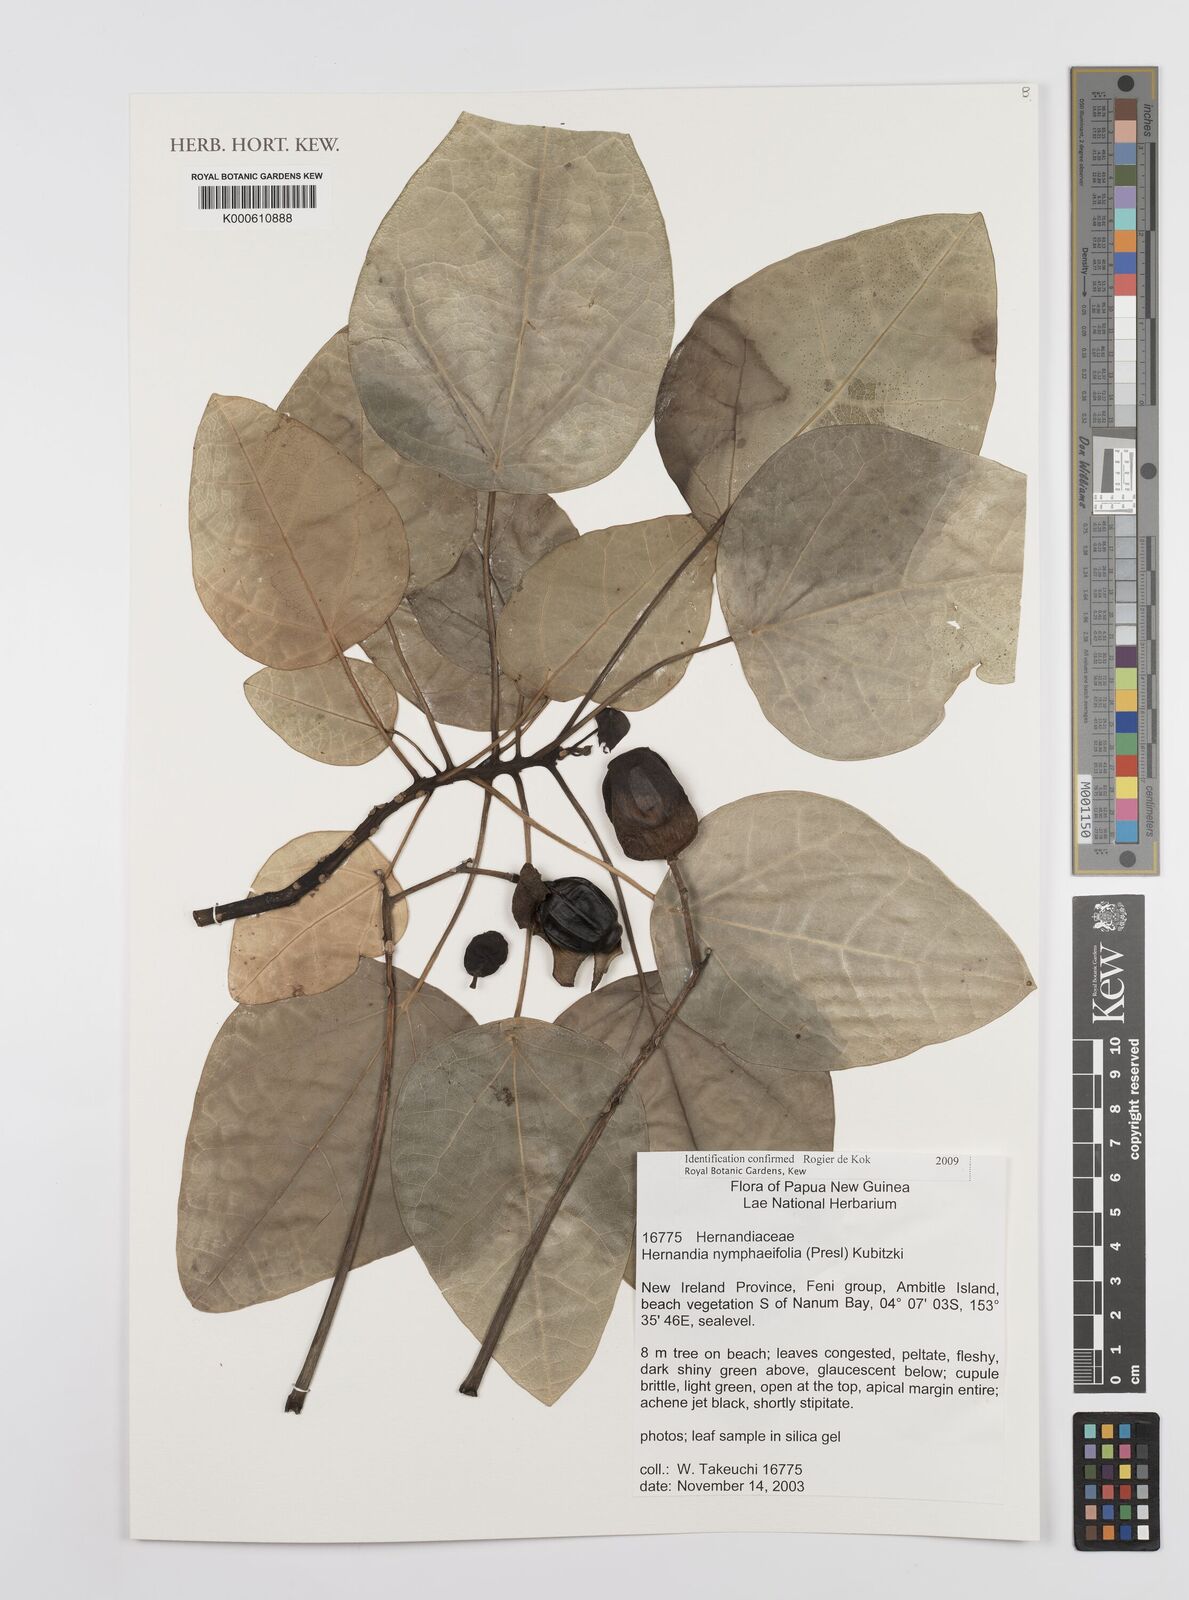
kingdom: Plantae
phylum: Tracheophyta
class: Magnoliopsida
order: Laurales
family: Hernandiaceae
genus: Hernandia
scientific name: Hernandia nymphaeifolia
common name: Sea hearse
